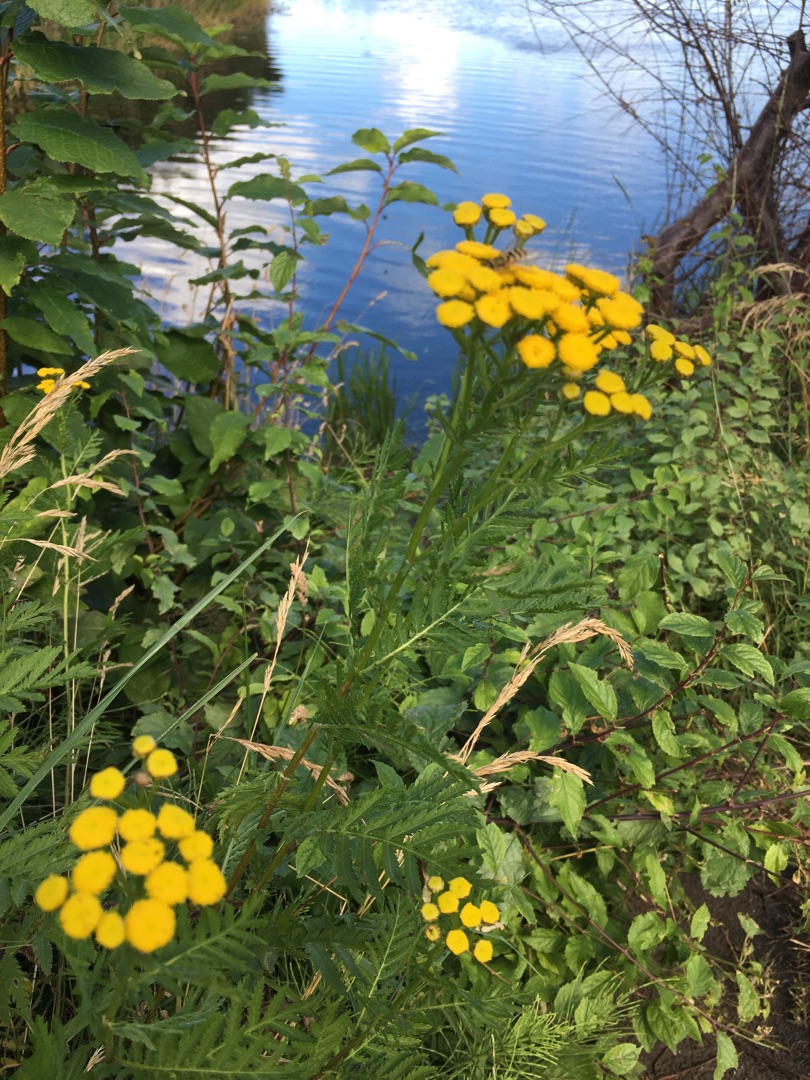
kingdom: Plantae
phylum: Tracheophyta
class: Magnoliopsida
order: Asterales
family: Asteraceae
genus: Tanacetum
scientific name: Tanacetum vulgare
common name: Rejnfan
